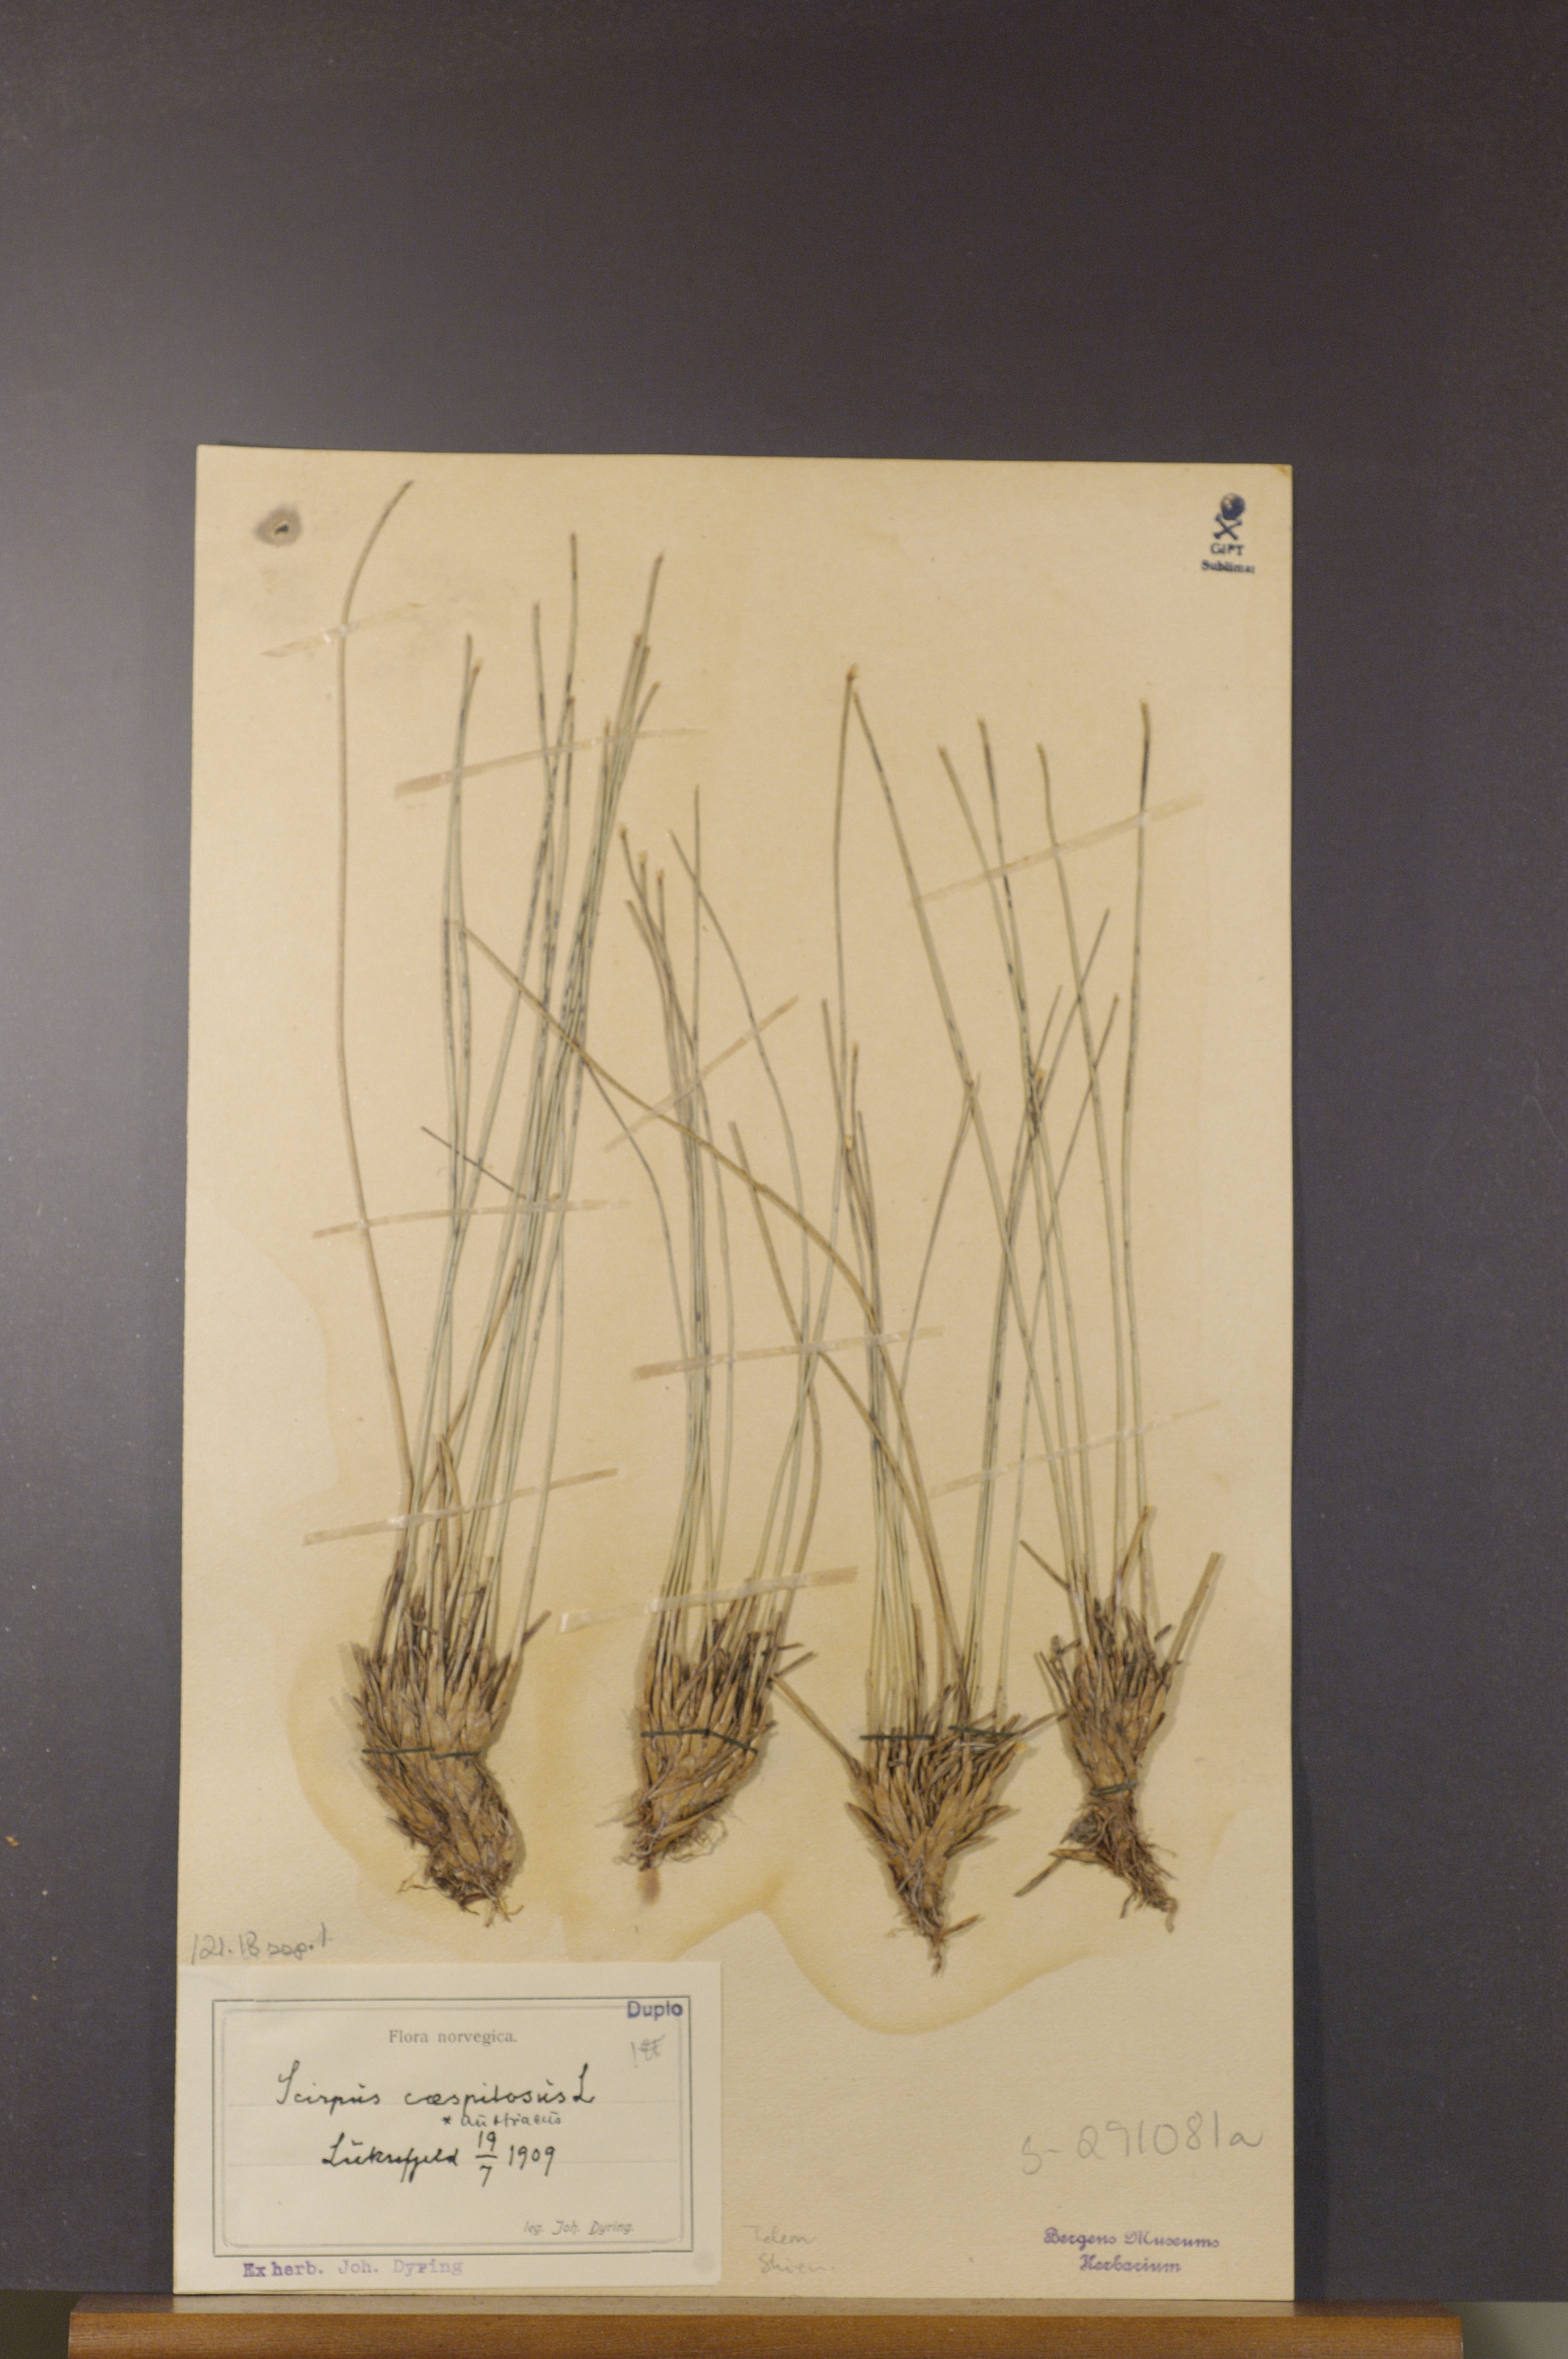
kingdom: Plantae
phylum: Tracheophyta
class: Liliopsida
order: Poales
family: Cyperaceae
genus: Trichophorum
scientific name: Trichophorum cespitosum
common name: Cespitose bulrush
